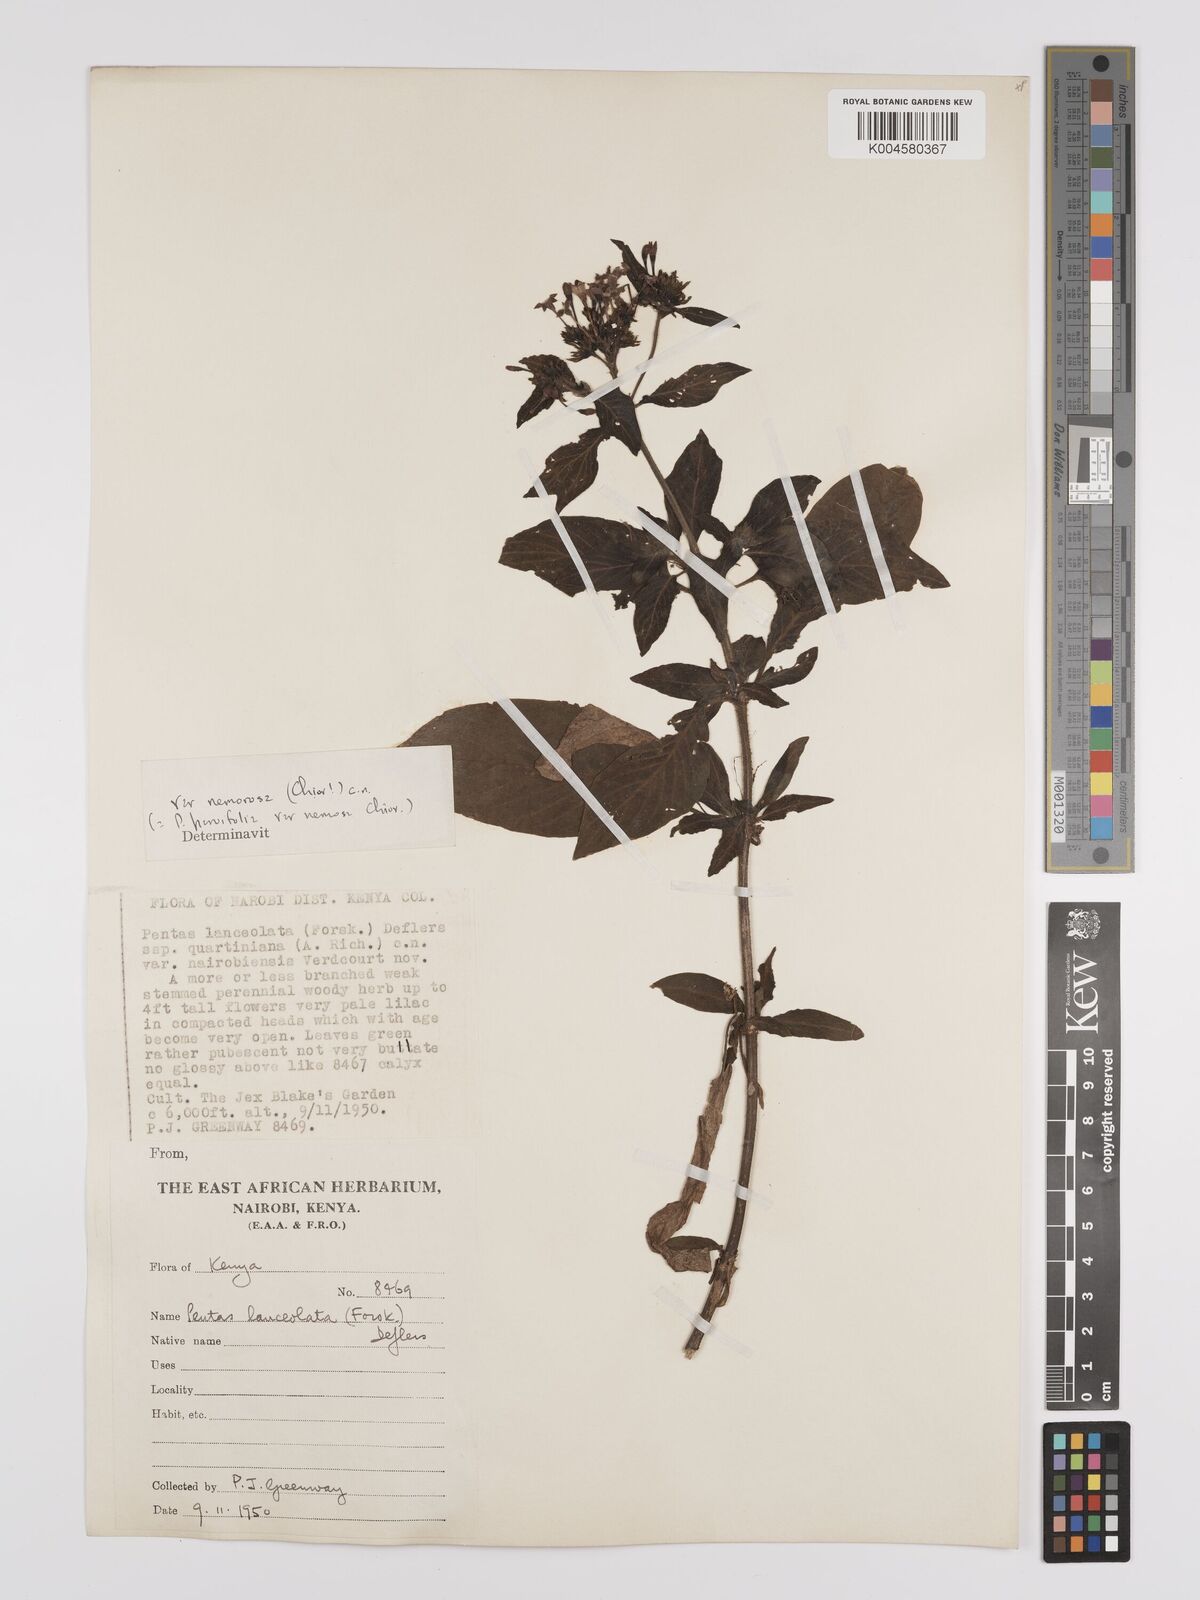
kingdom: Plantae
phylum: Tracheophyta
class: Magnoliopsida
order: Gentianales
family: Rubiaceae
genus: Pentas
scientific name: Pentas lanceolata
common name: Egyptian starcluster
